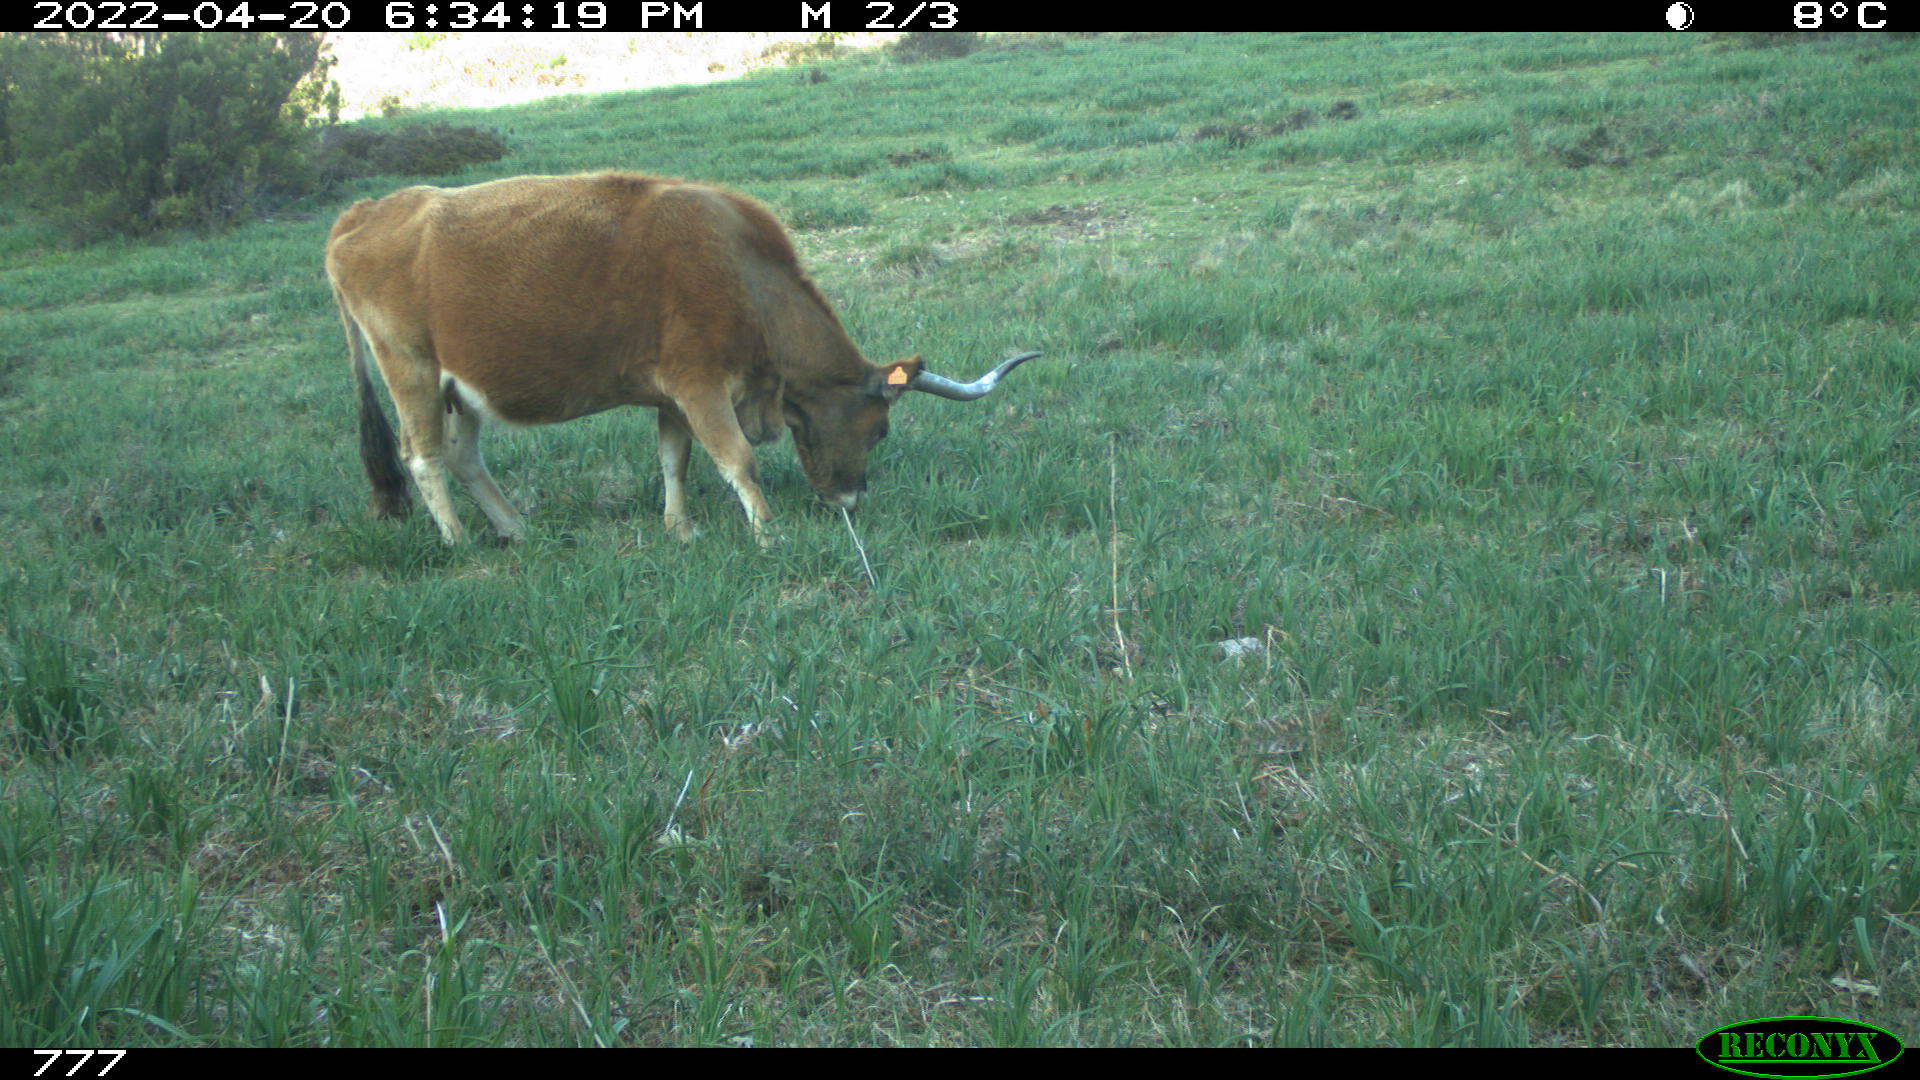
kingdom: Animalia
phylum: Chordata
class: Mammalia
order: Artiodactyla
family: Bovidae
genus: Bos
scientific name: Bos taurus
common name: Domesticated cattle
